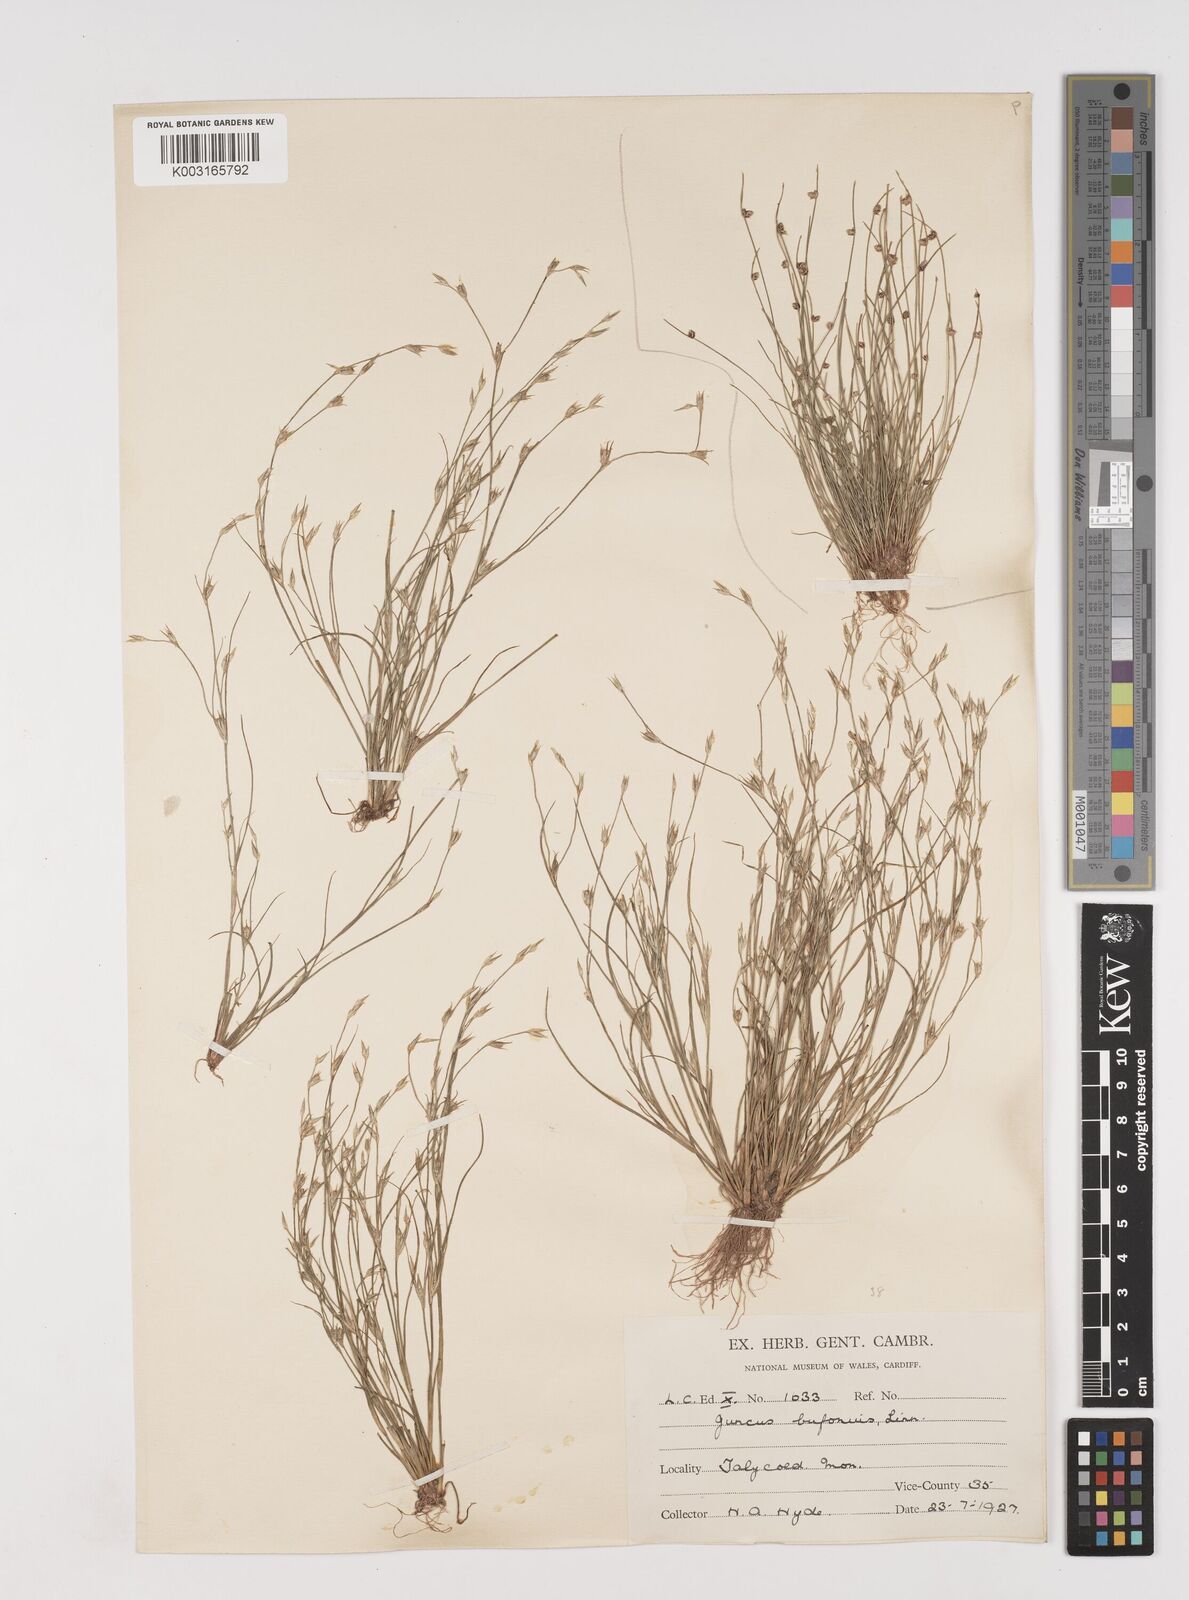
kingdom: Plantae
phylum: Tracheophyta
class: Liliopsida
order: Poales
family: Juncaceae
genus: Juncus
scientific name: Juncus bufonius
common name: Toad rush
